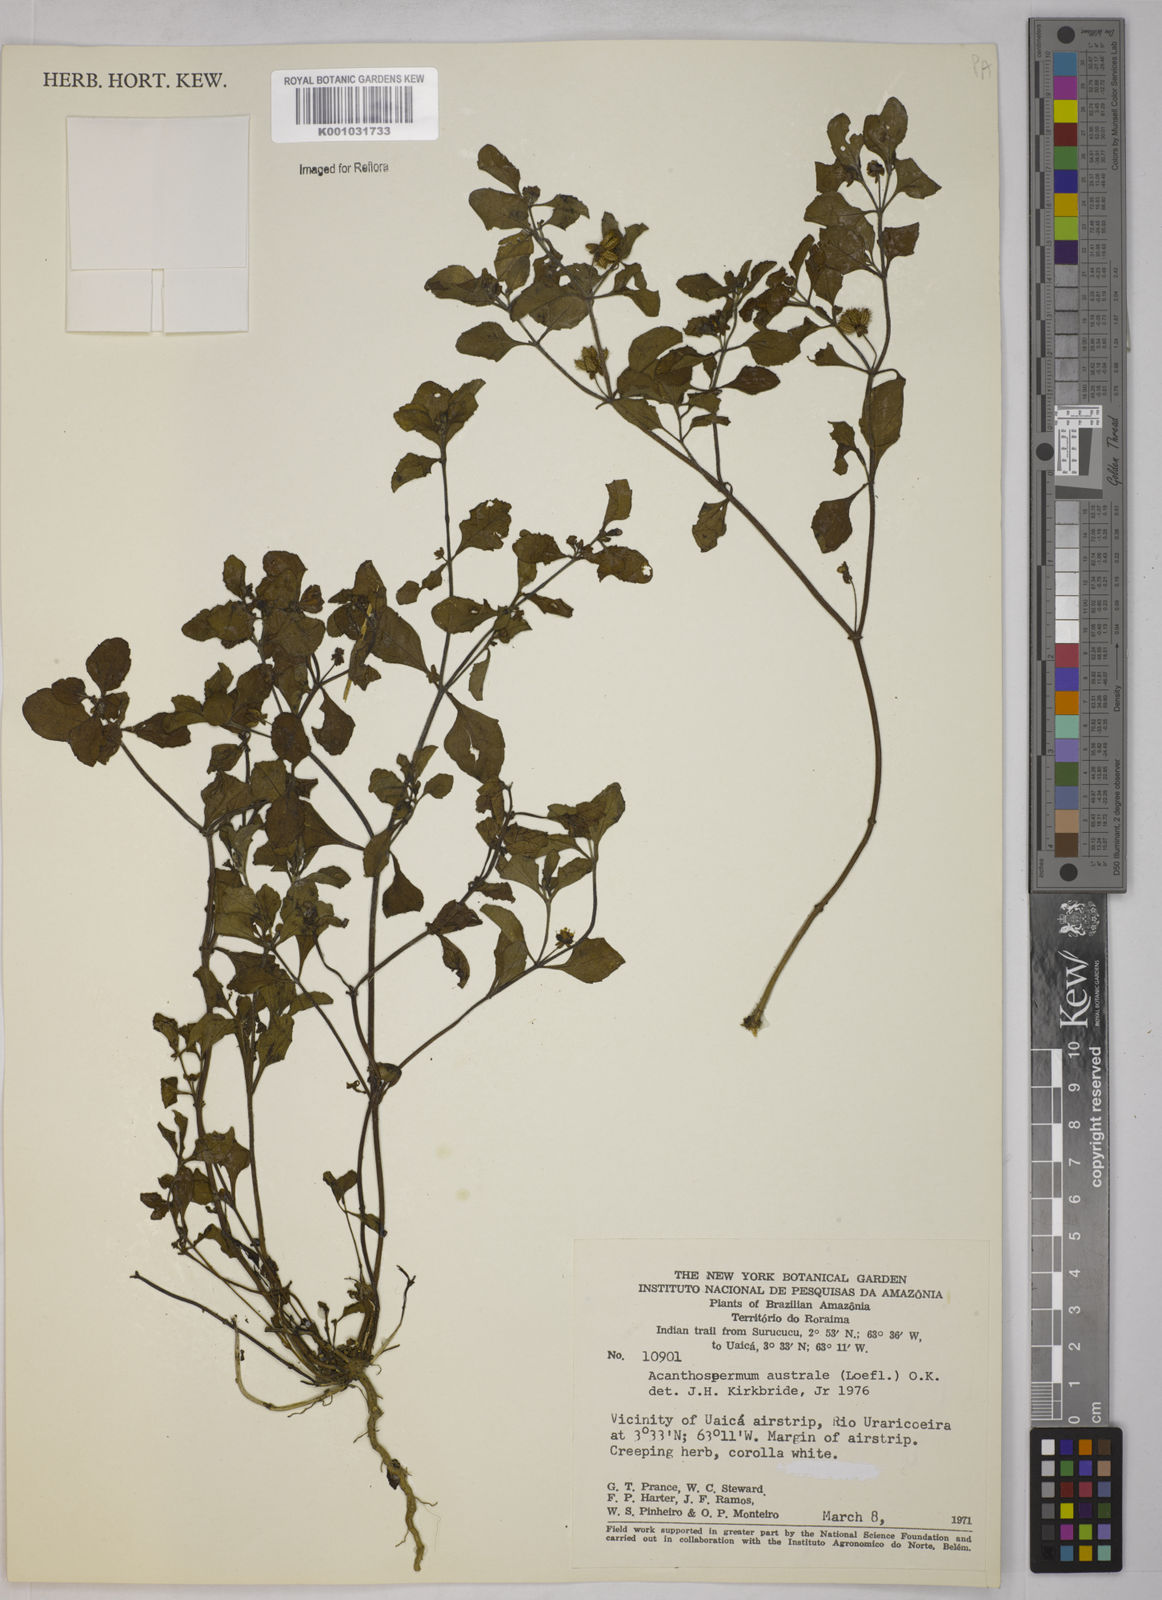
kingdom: Plantae
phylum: Tracheophyta
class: Magnoliopsida
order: Asterales
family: Asteraceae
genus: Acanthospermum
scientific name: Acanthospermum australe
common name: Paraguayan starbur
